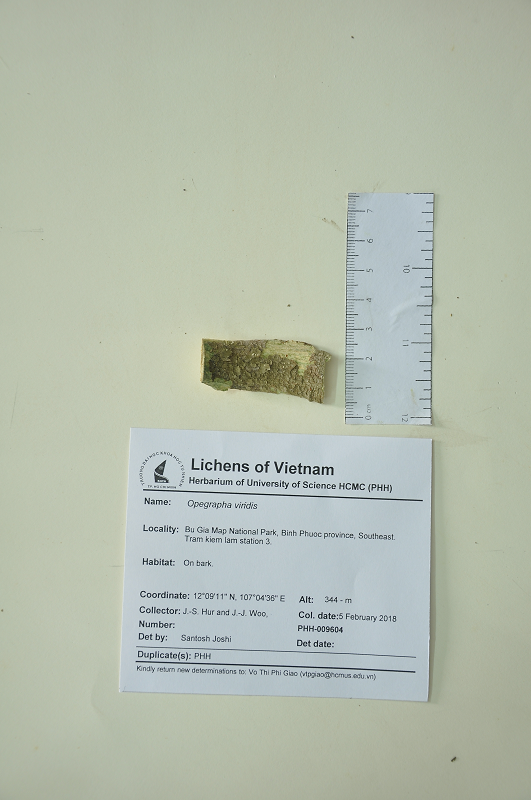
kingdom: Fungi
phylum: Ascomycota
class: Arthoniomycetes
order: Arthoniales
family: Opegraphaceae
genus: Opegrapha
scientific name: Opegrapha
